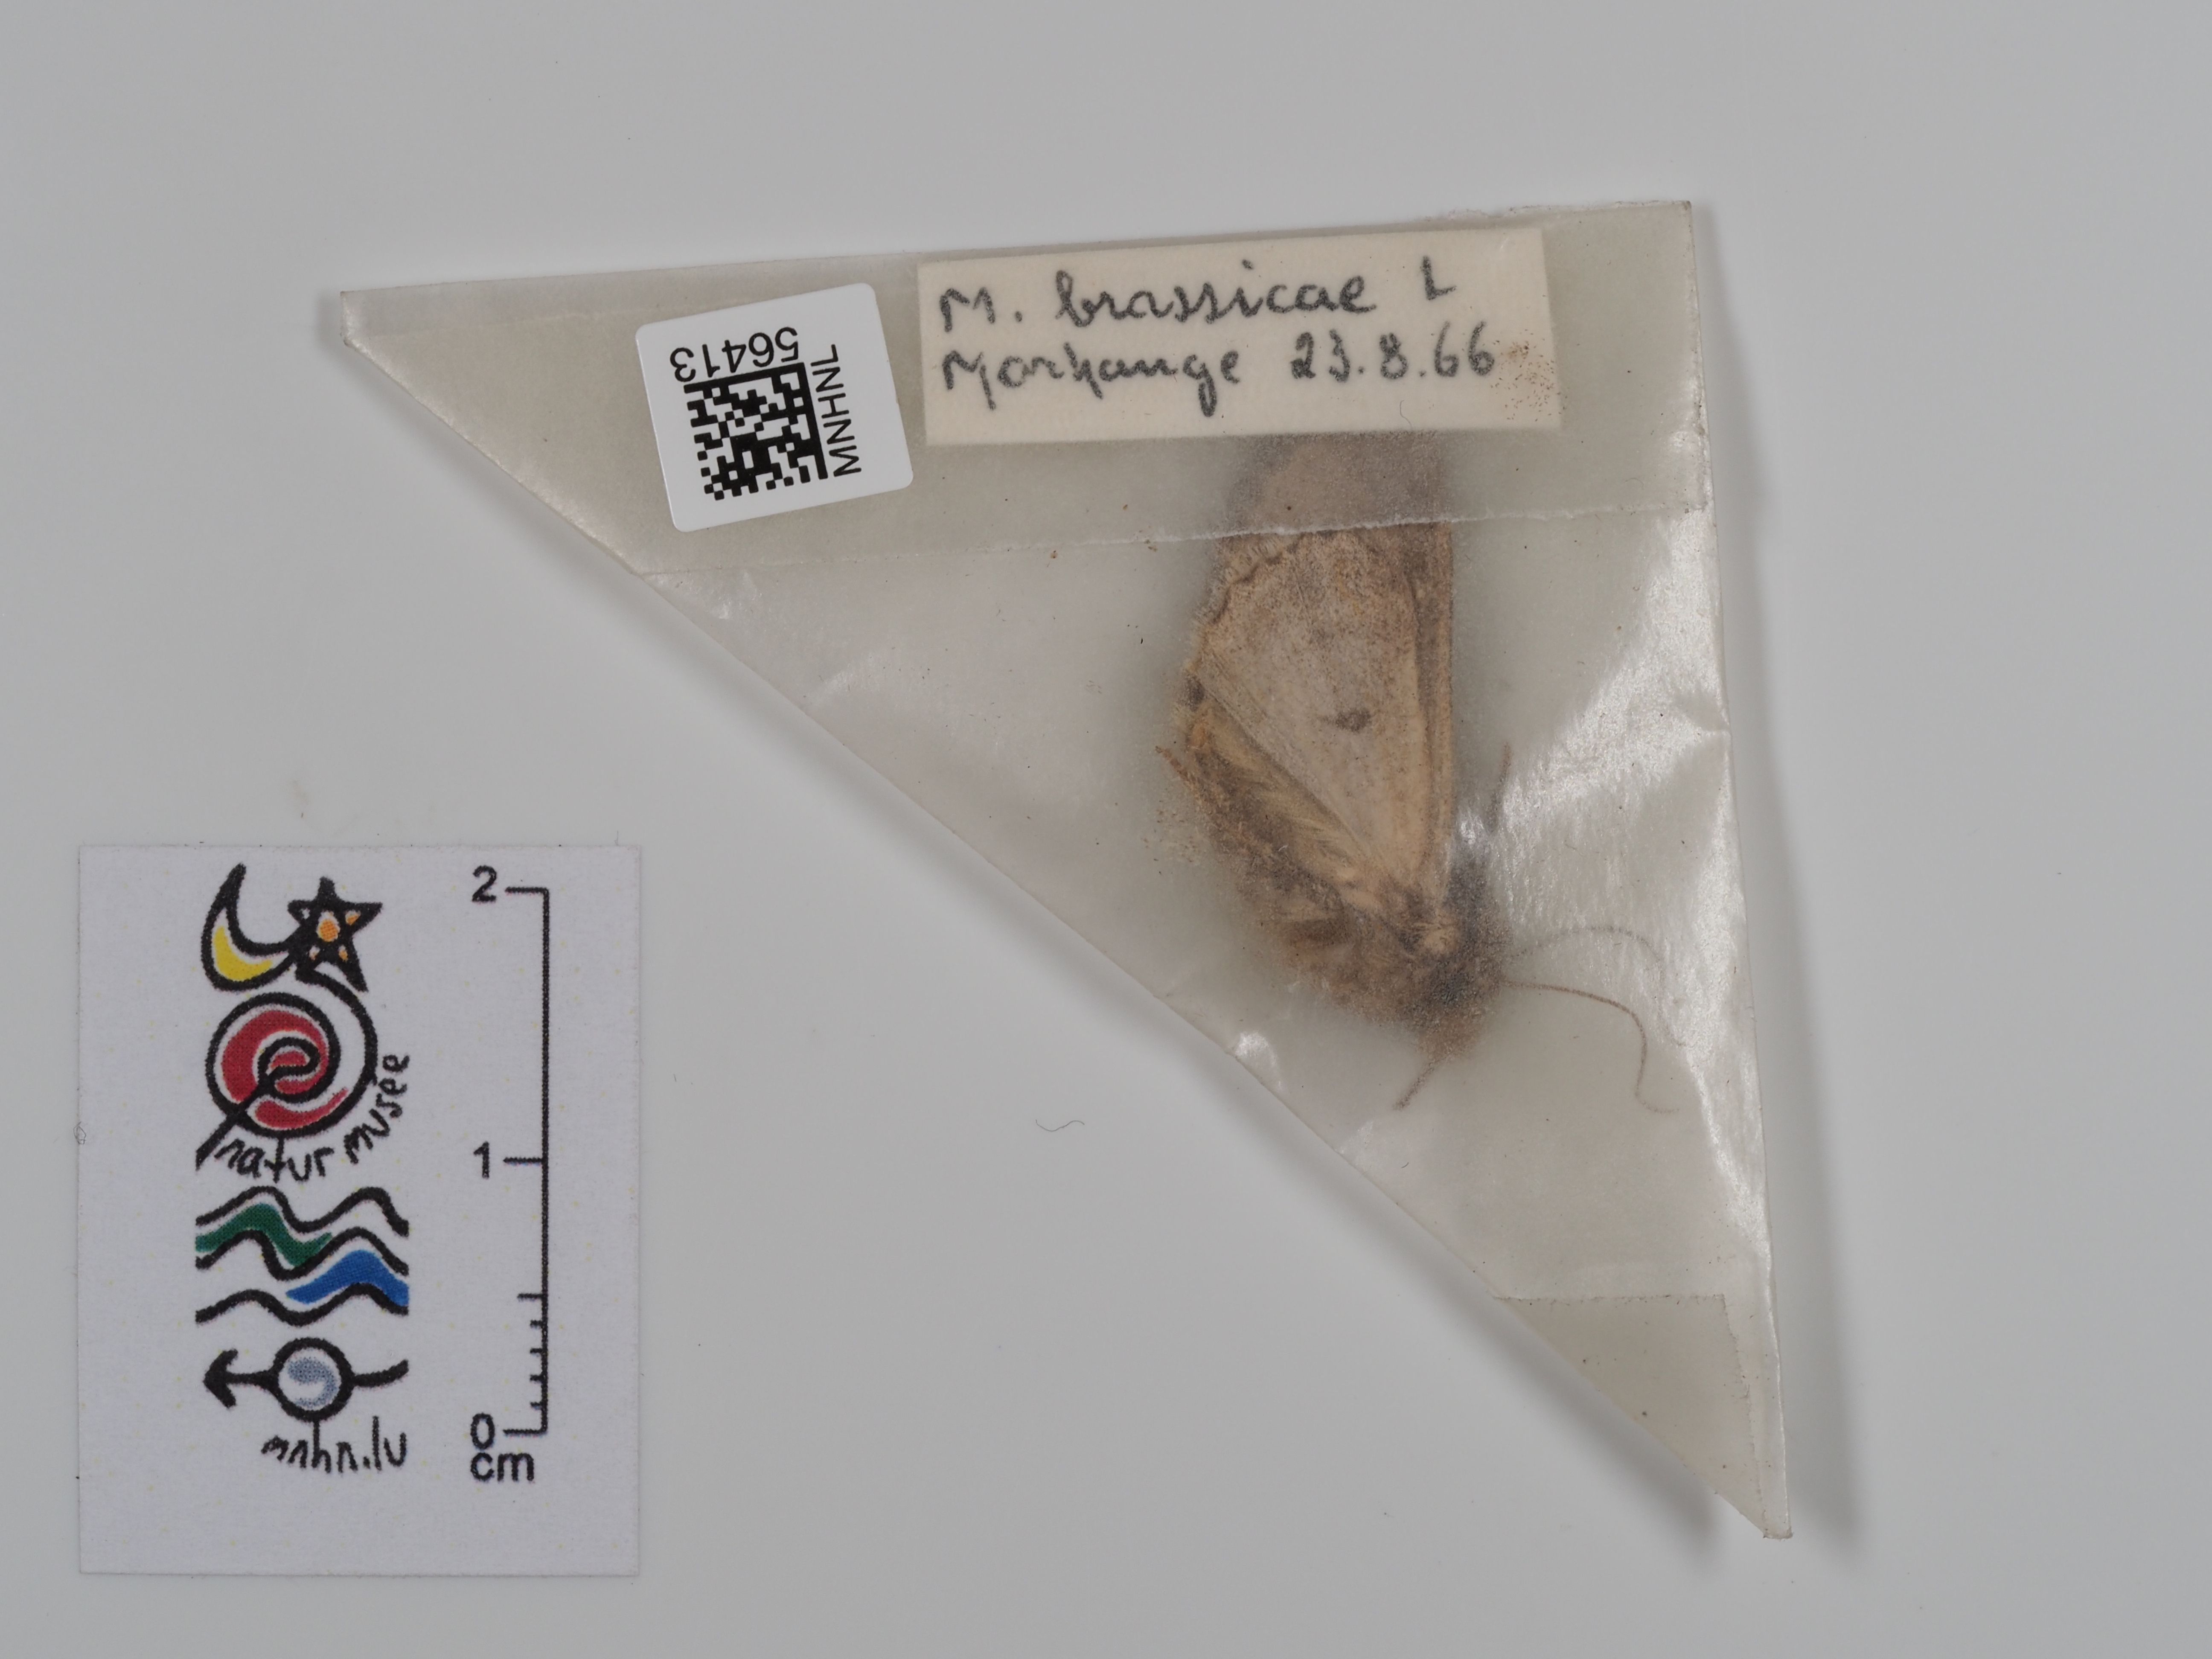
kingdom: Animalia
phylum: Arthropoda
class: Insecta
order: Lepidoptera
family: Noctuidae
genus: Mamestra
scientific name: Mamestra brassicae
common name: Cabbage moth
